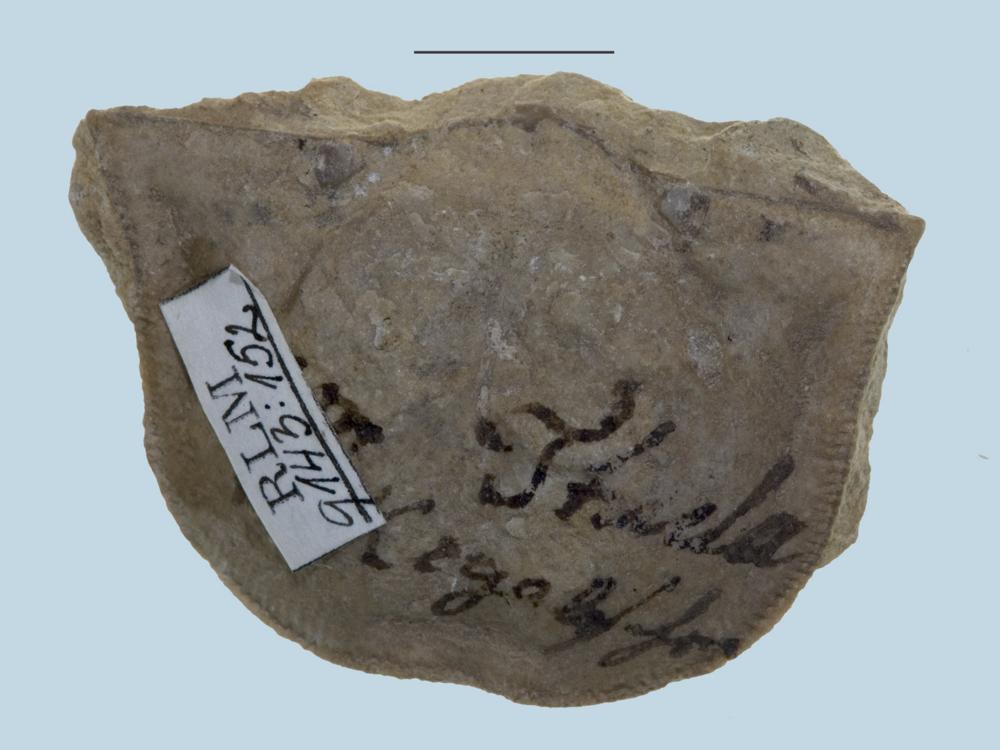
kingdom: Animalia
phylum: Brachiopoda
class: Rhynchonellata
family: Clitambonitidae
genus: Clinambon
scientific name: Clinambon anomalus
